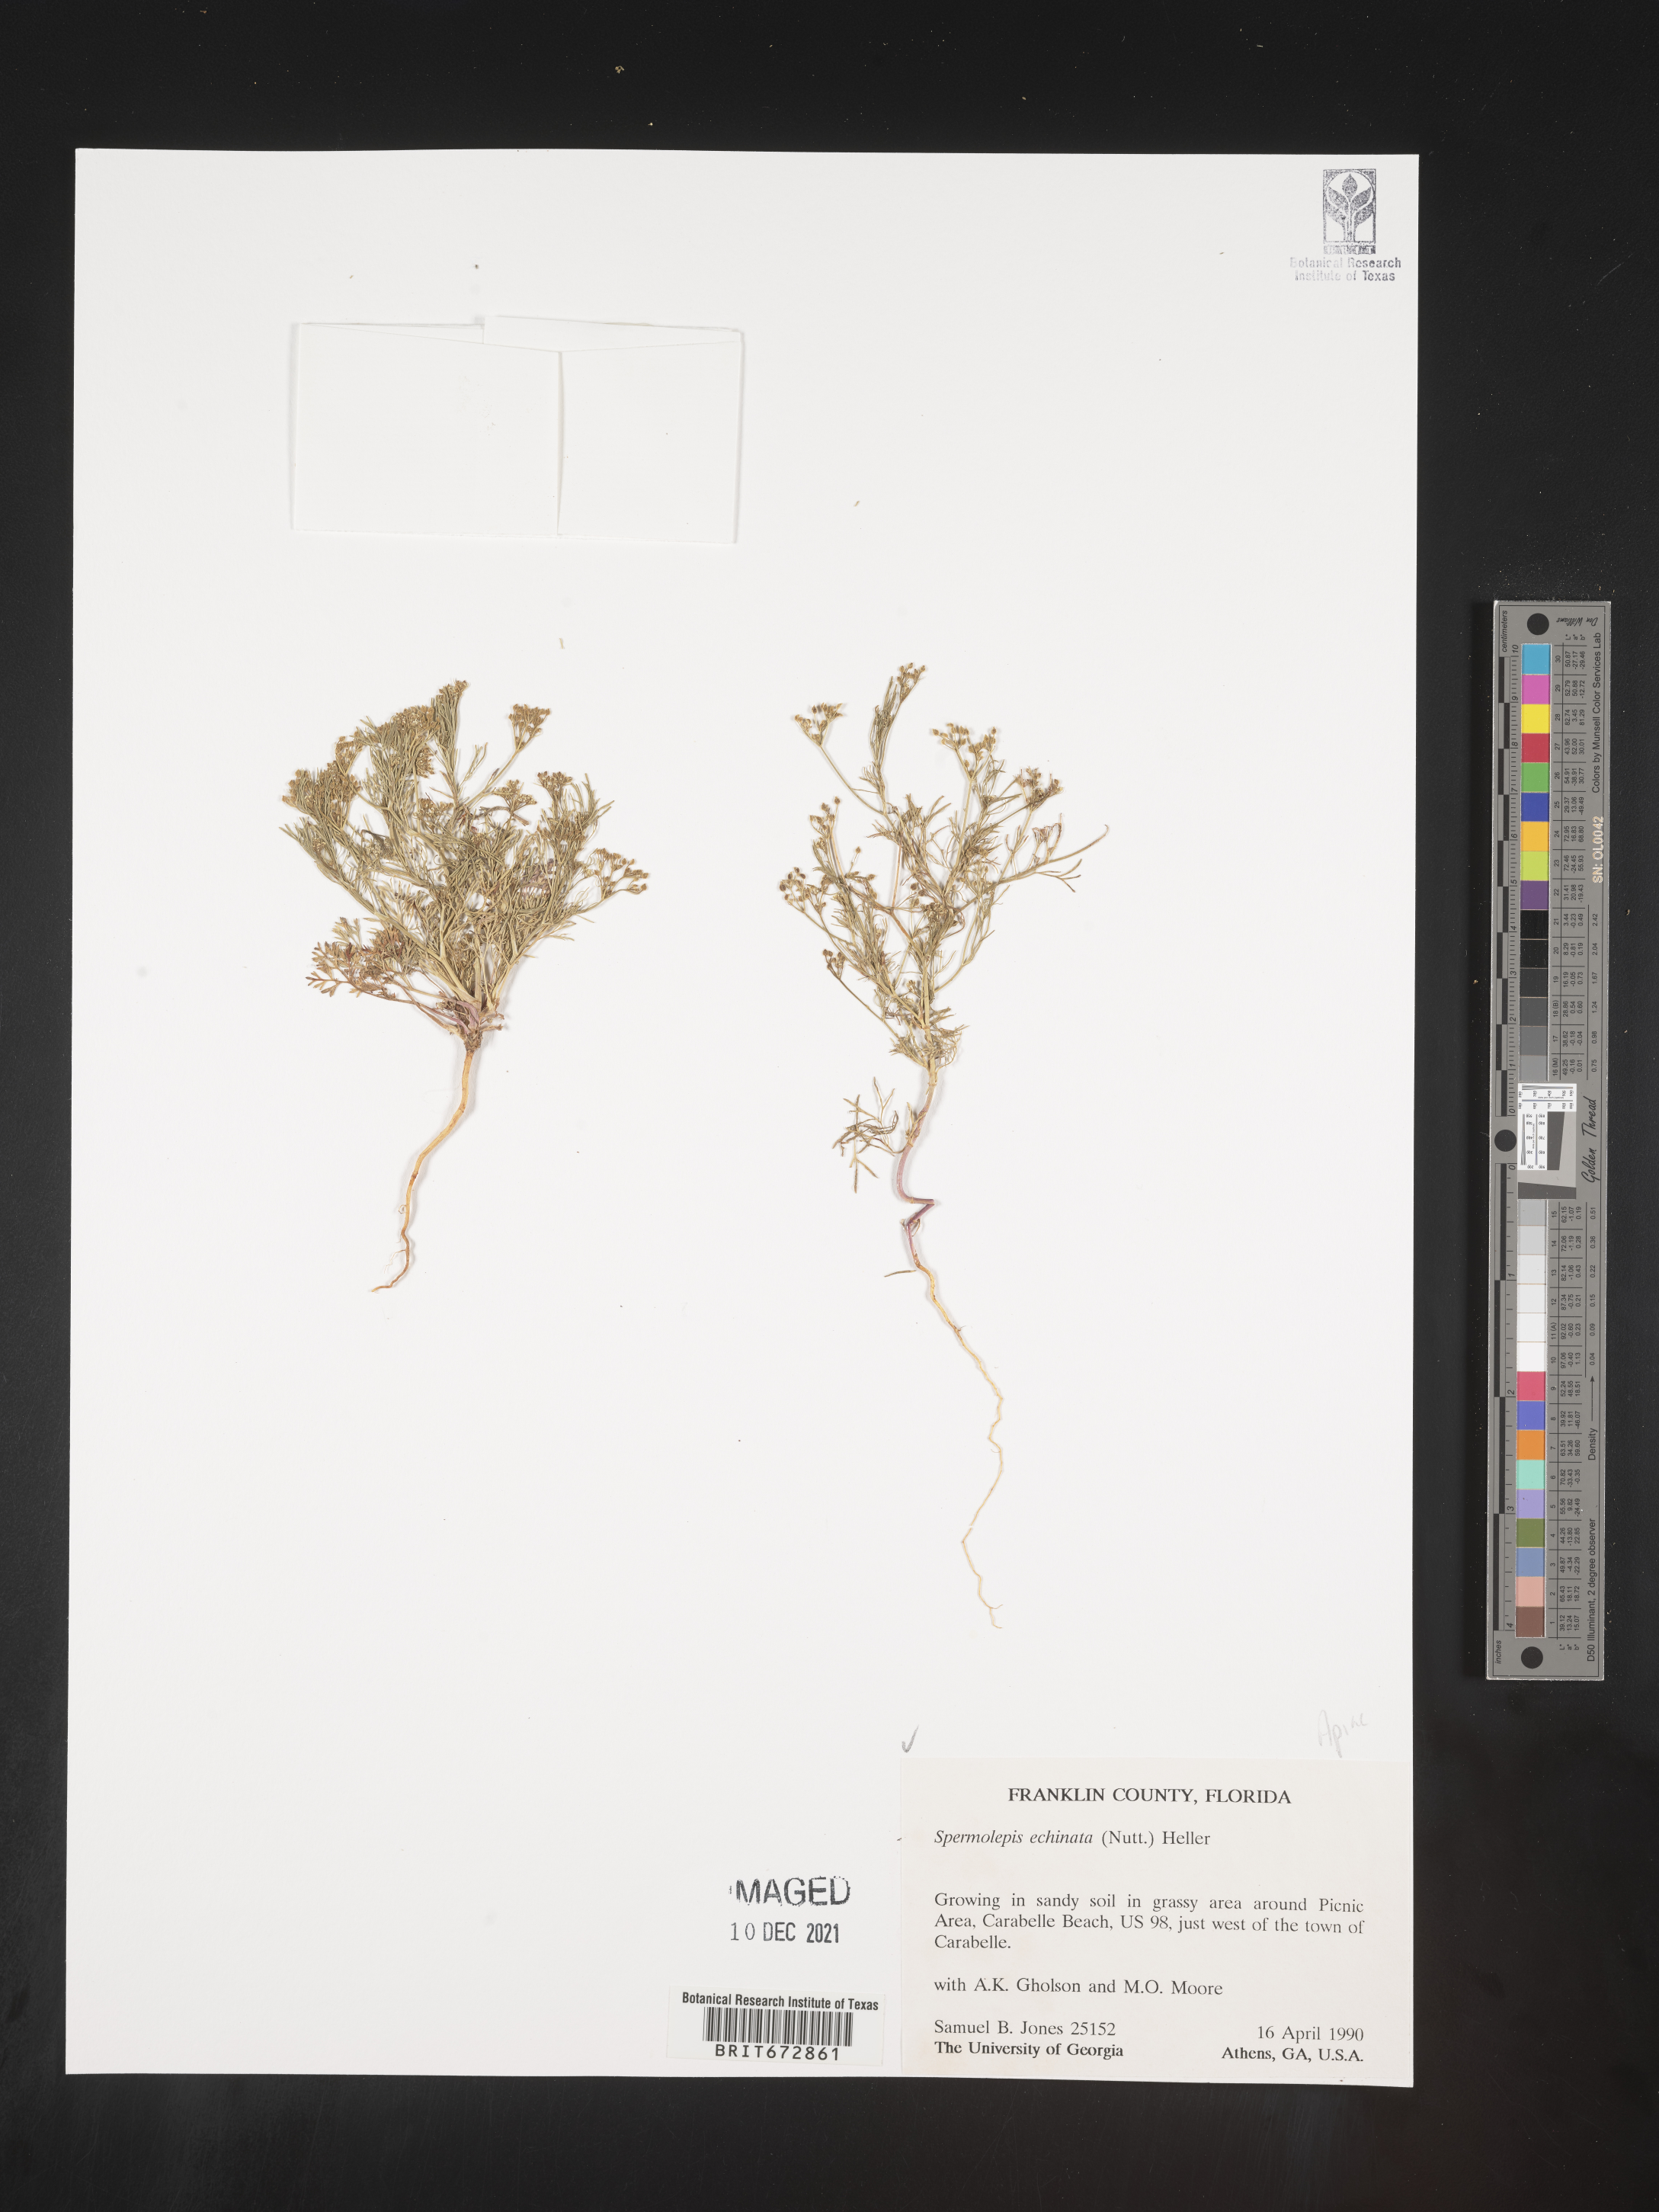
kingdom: Plantae
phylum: Tracheophyta
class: Magnoliopsida
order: Apiales
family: Apiaceae
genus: Spermolepis
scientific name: Spermolepis echinata
